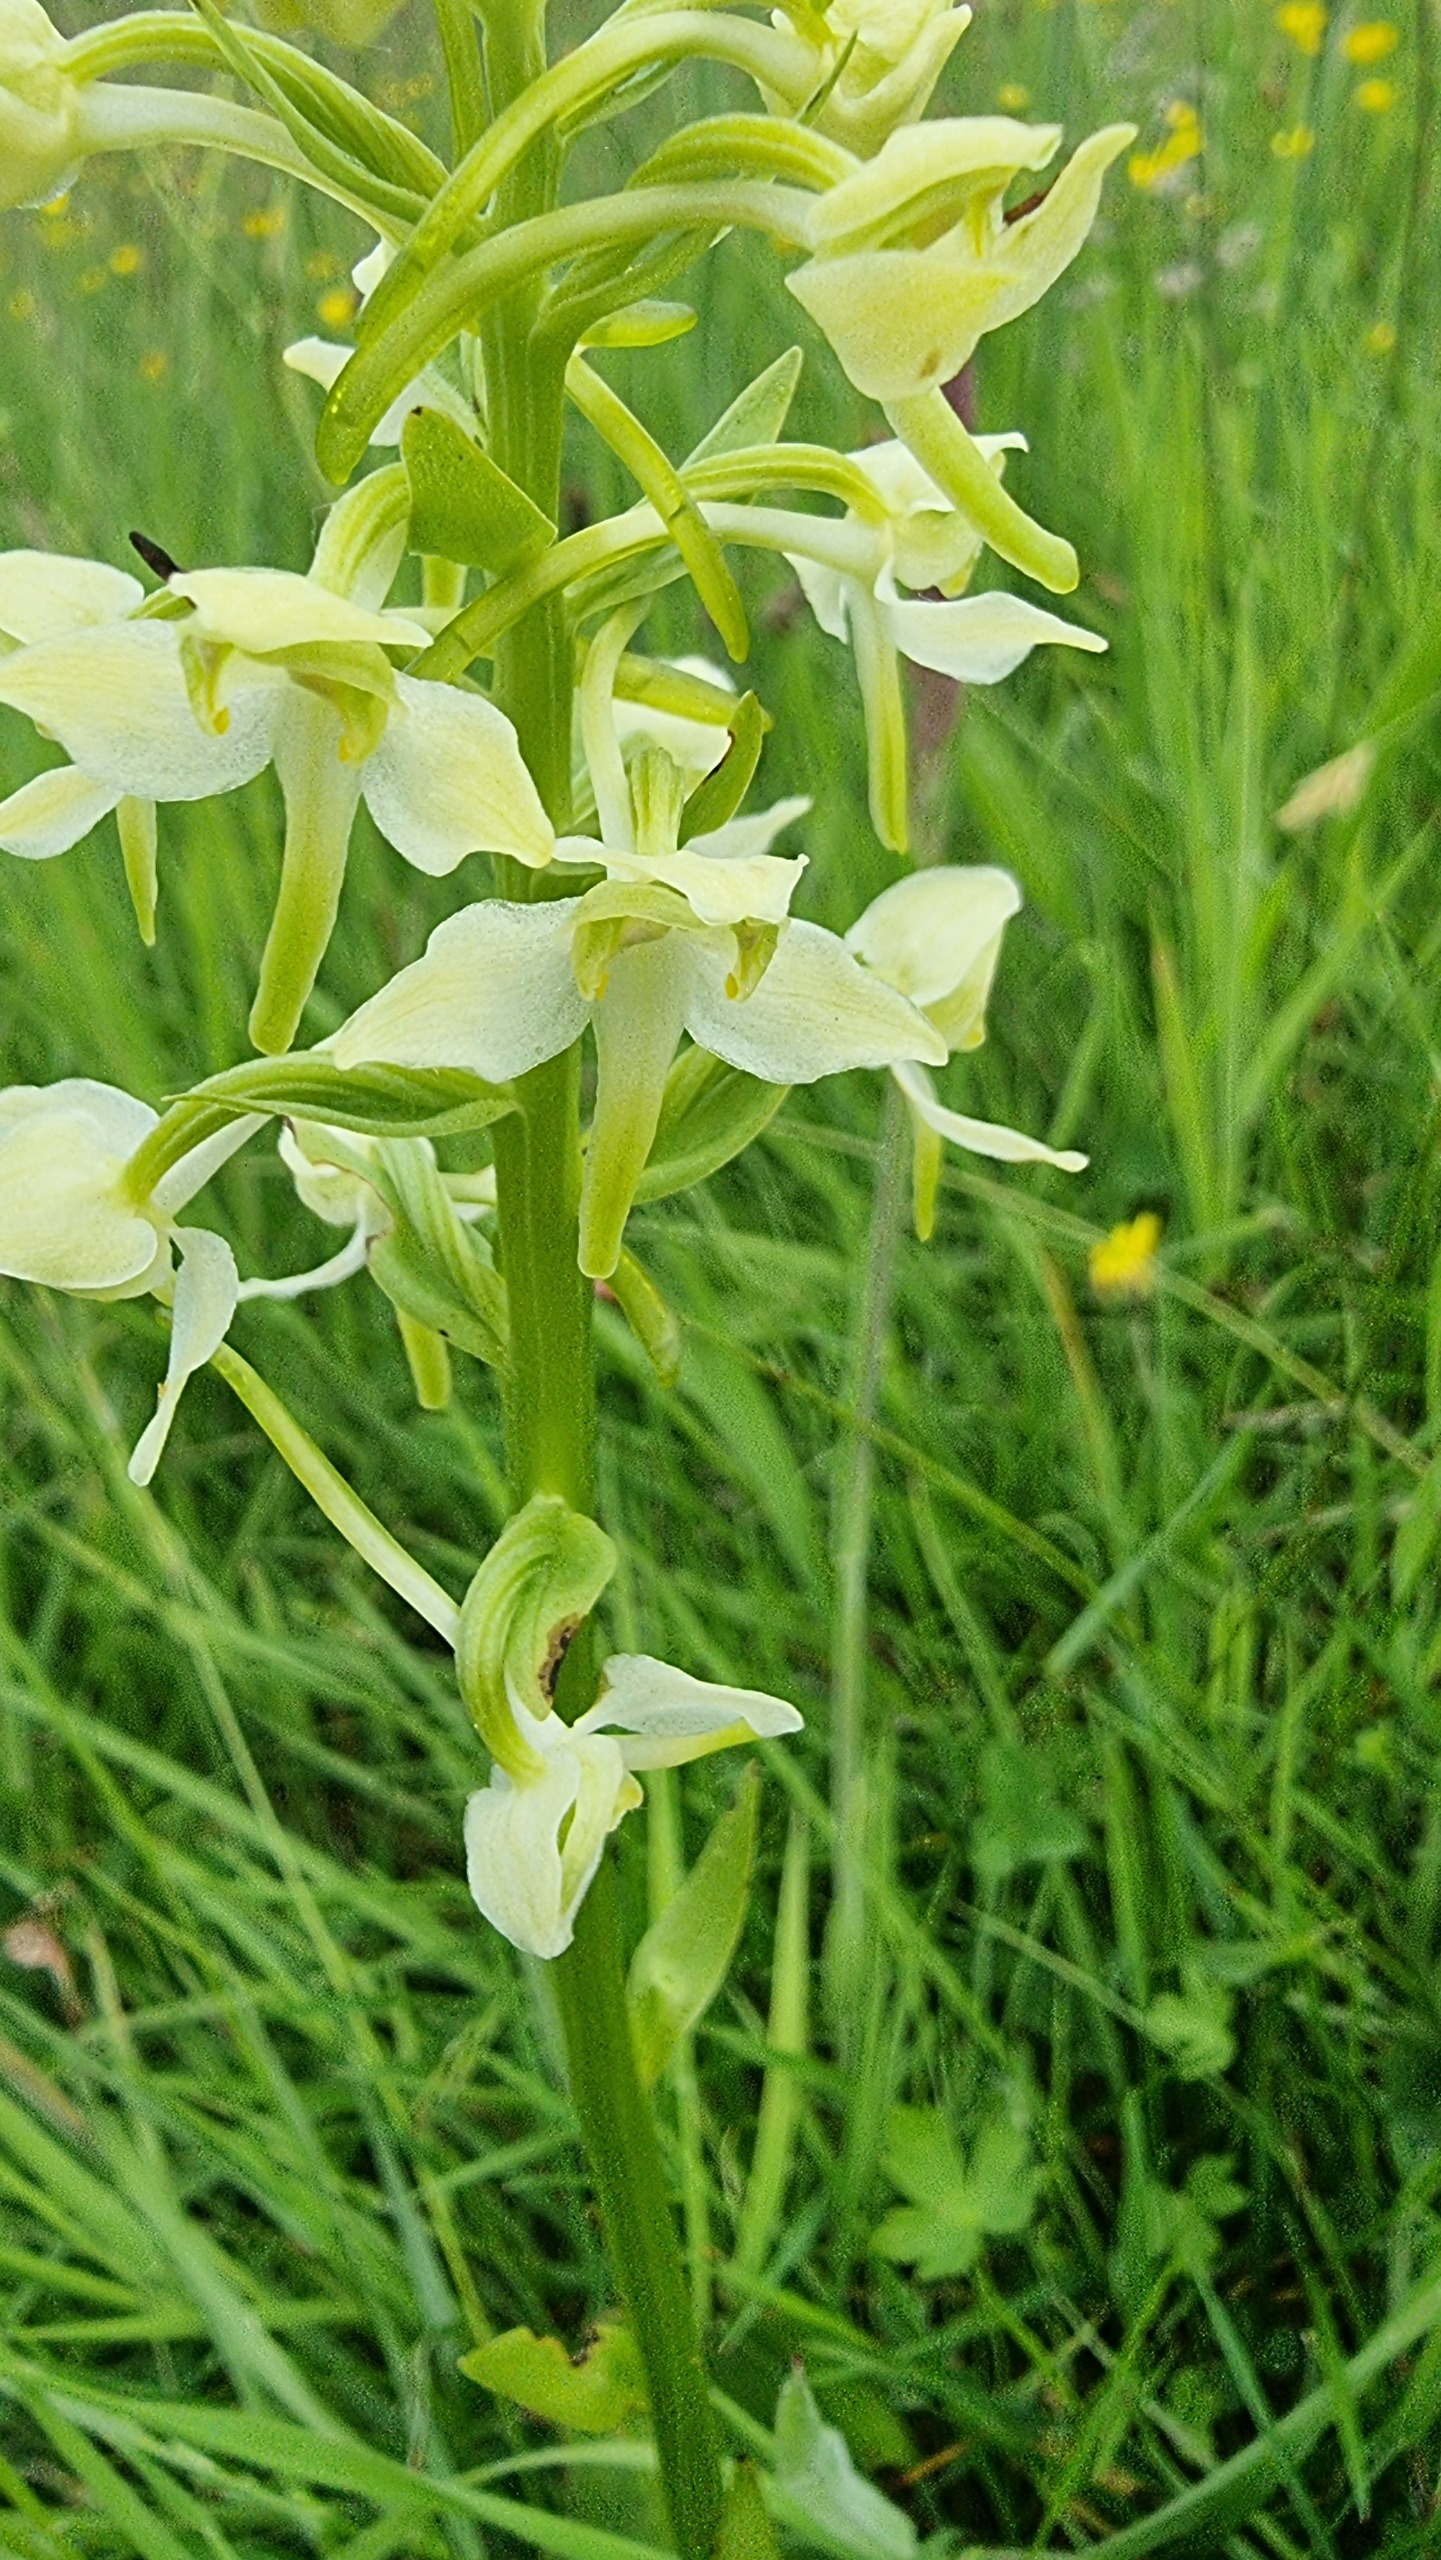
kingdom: Plantae
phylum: Tracheophyta
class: Liliopsida
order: Asparagales
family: Orchidaceae
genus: Platanthera
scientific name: Platanthera chlorantha
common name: Skov-gøgelilje
